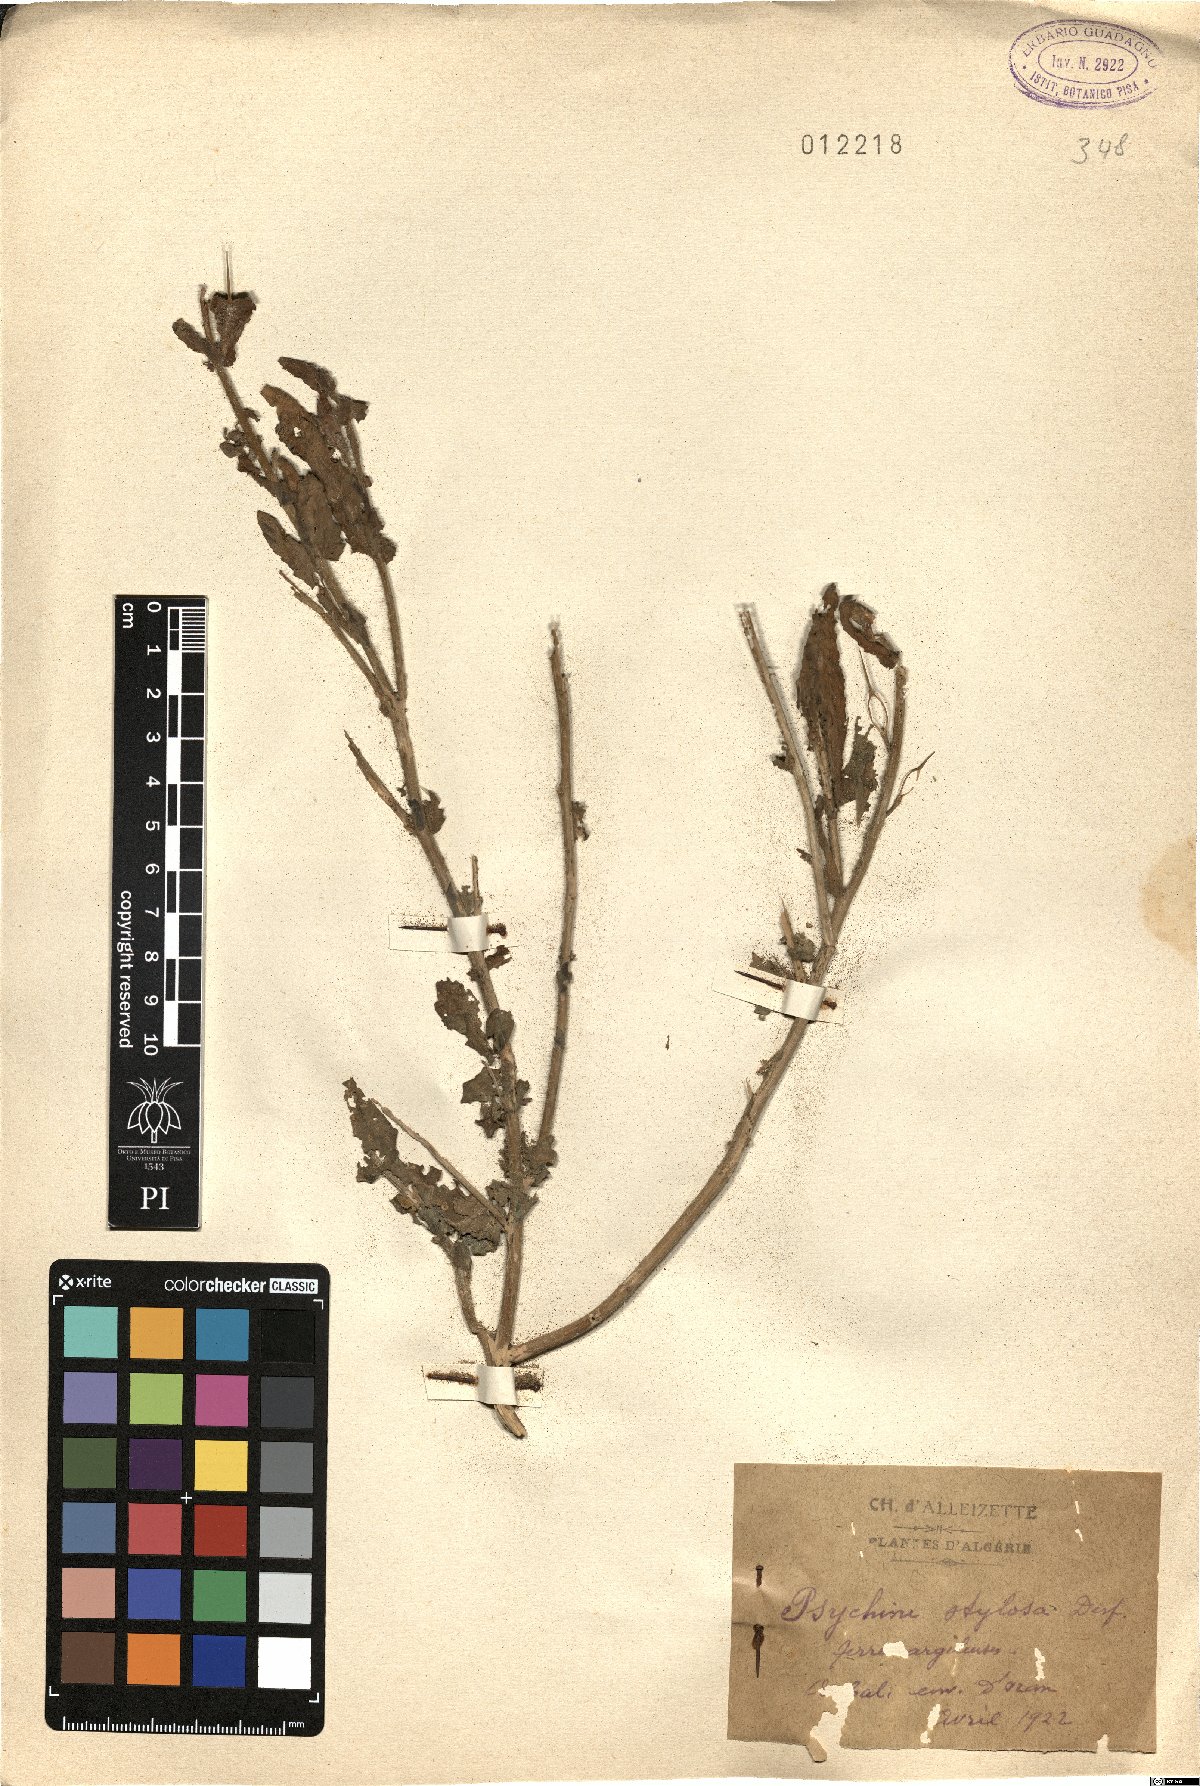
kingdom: Plantae
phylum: Tracheophyta
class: Magnoliopsida
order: Brassicales
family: Brassicaceae
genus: Psychine
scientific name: Psychine stylosa
